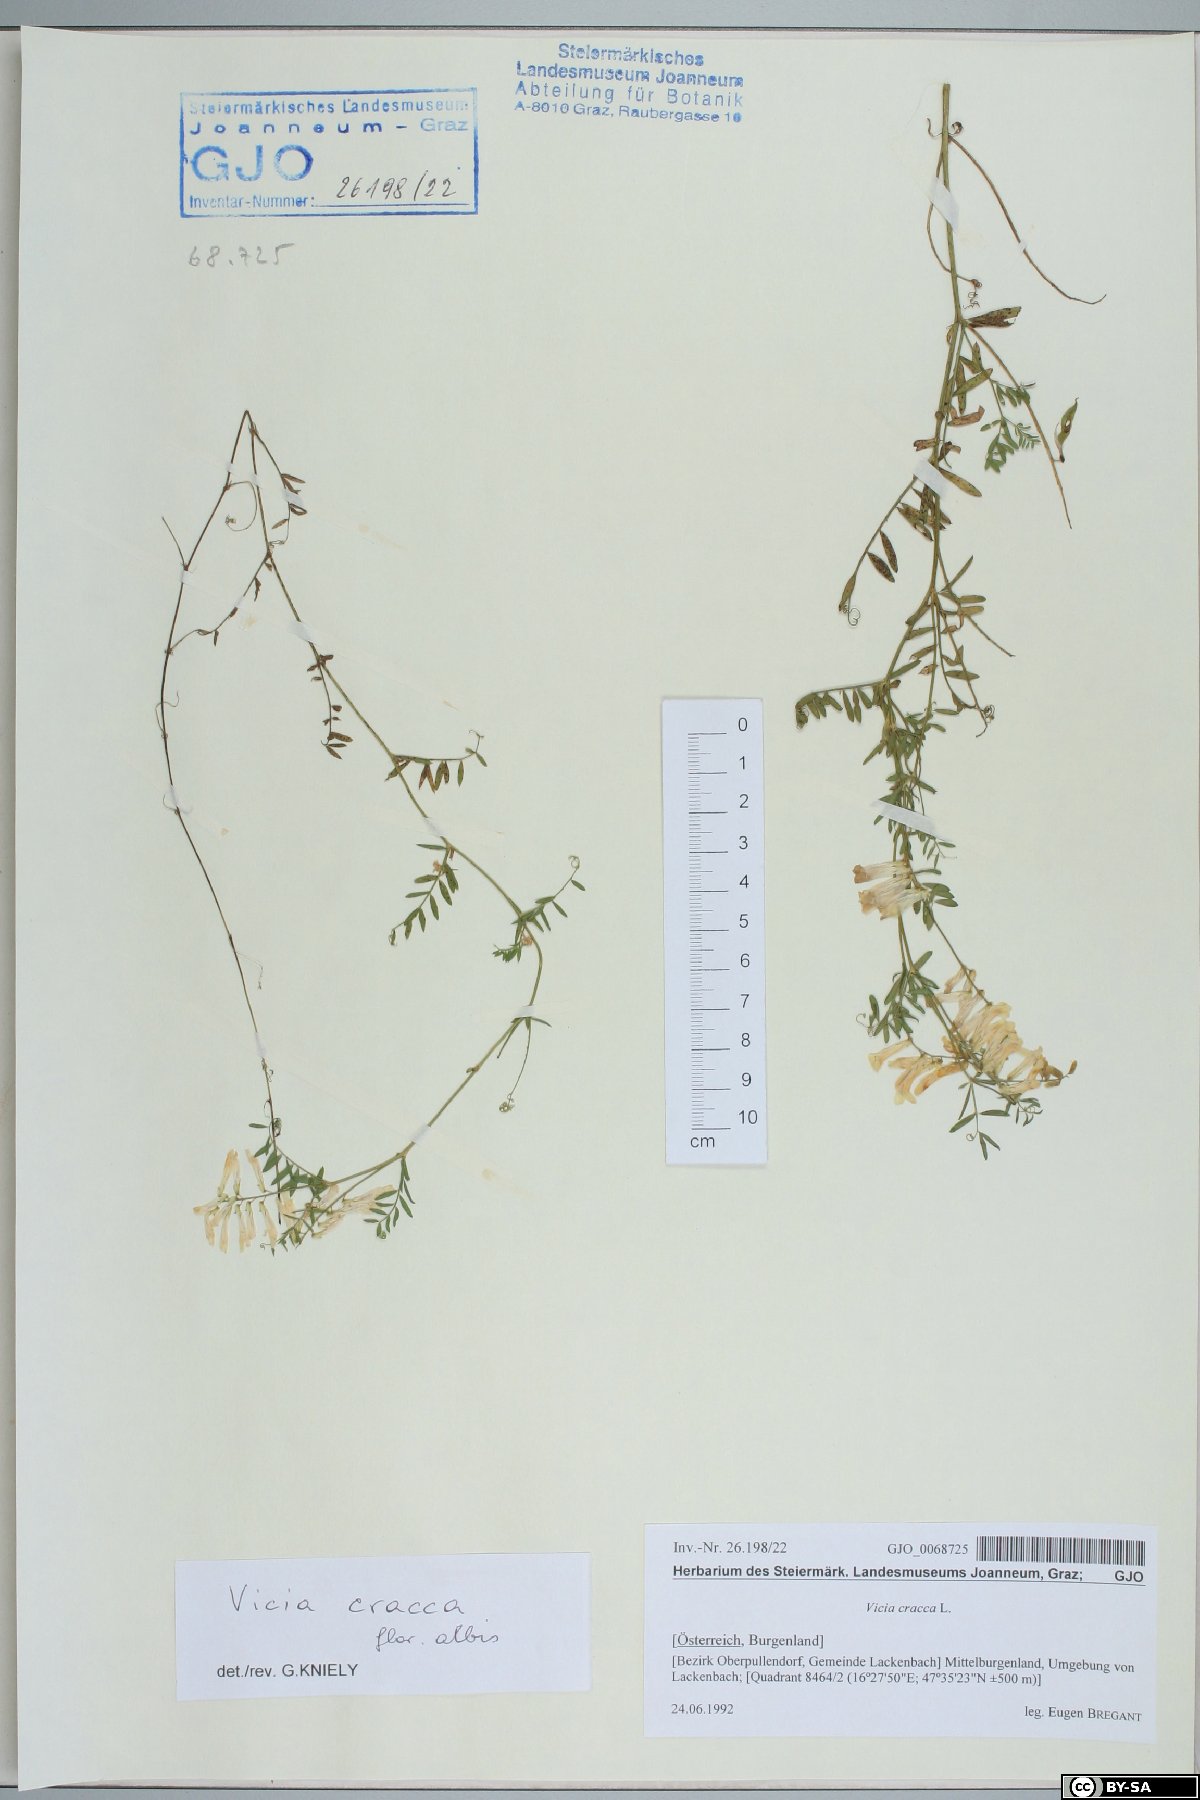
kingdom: Plantae
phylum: Tracheophyta
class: Magnoliopsida
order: Fabales
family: Fabaceae
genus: Vicia
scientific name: Vicia cracca
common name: Bird vetch
